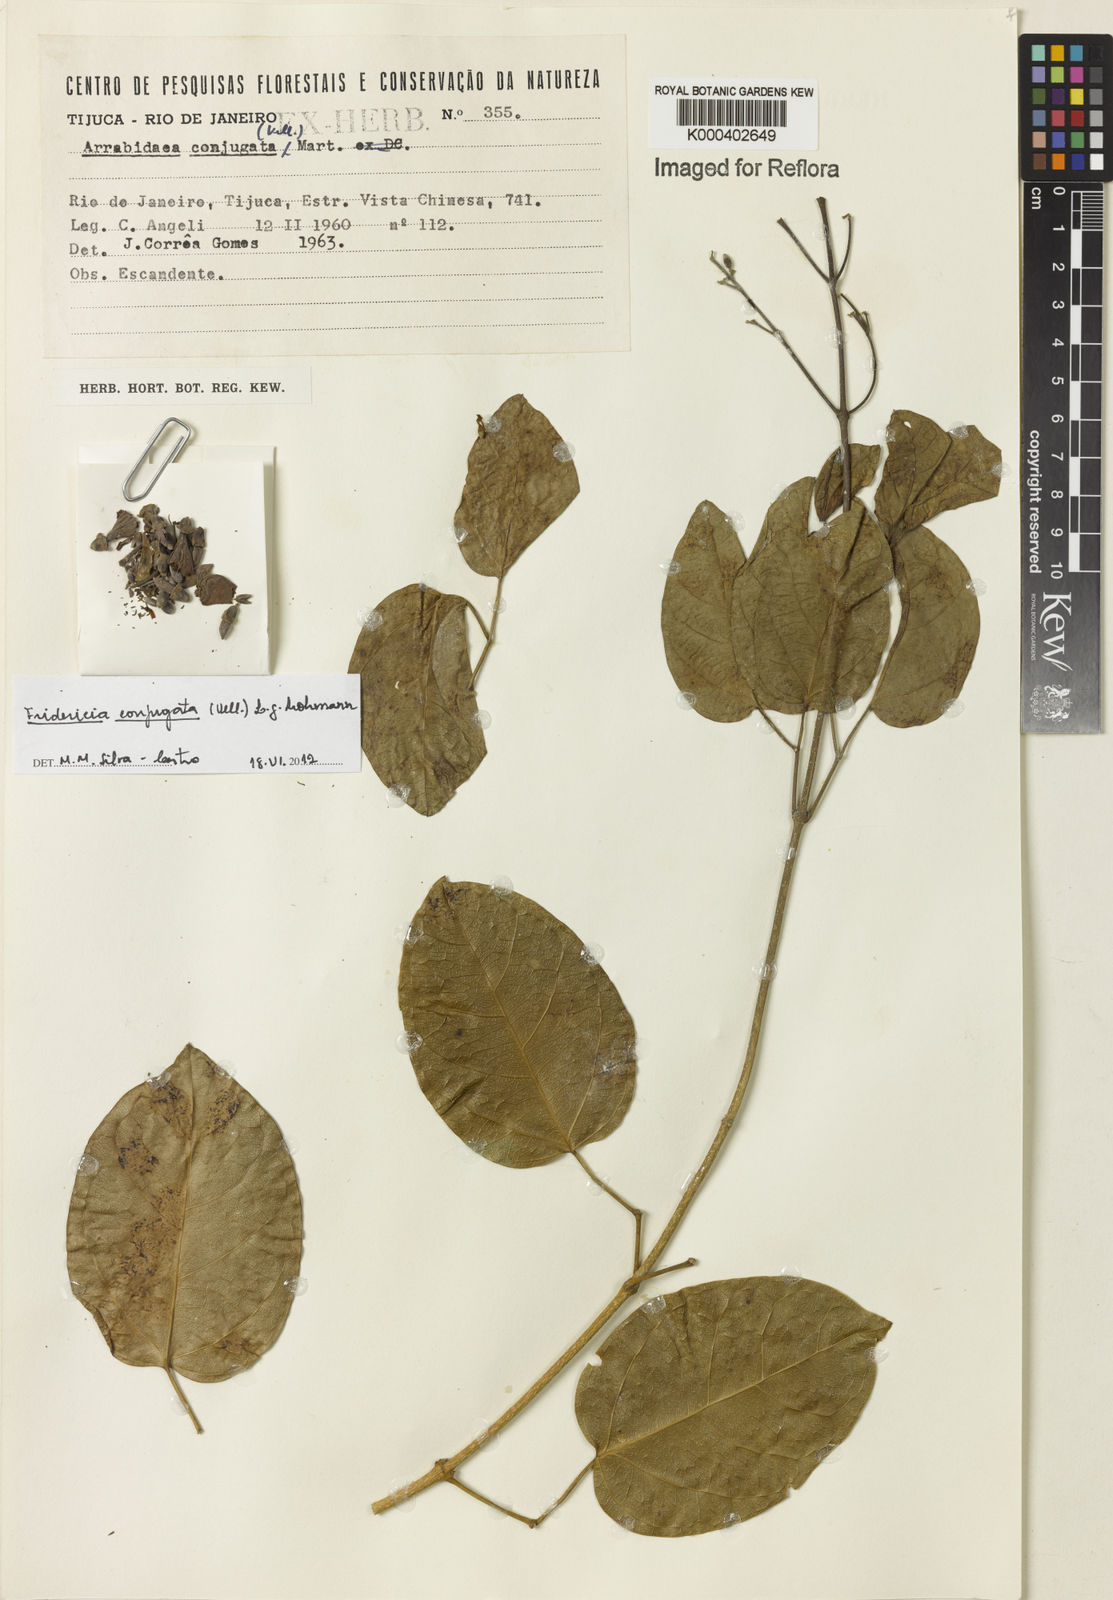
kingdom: Plantae
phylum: Tracheophyta
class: Magnoliopsida
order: Lamiales
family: Bignoniaceae
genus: Fridericia
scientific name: Fridericia conjugata
